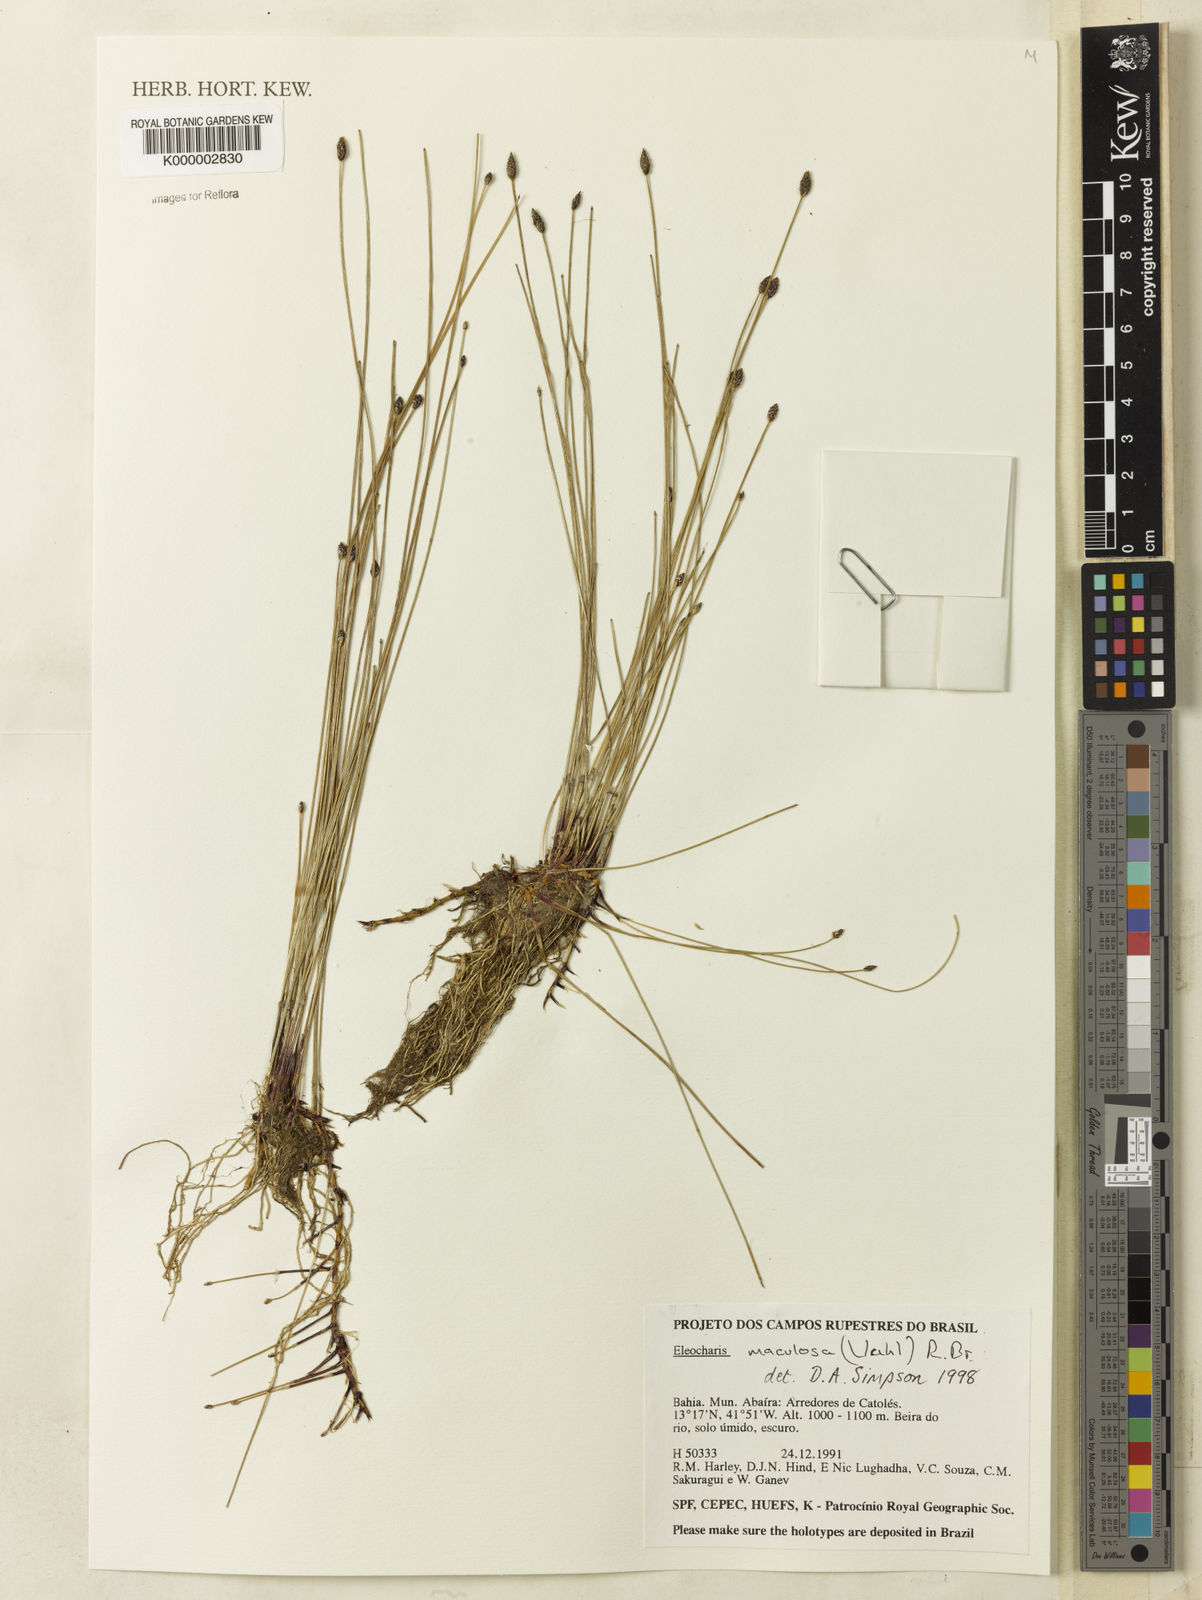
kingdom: Plantae
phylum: Tracheophyta
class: Liliopsida
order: Poales
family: Cyperaceae
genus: Eleocharis
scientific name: Eleocharis maculosa
